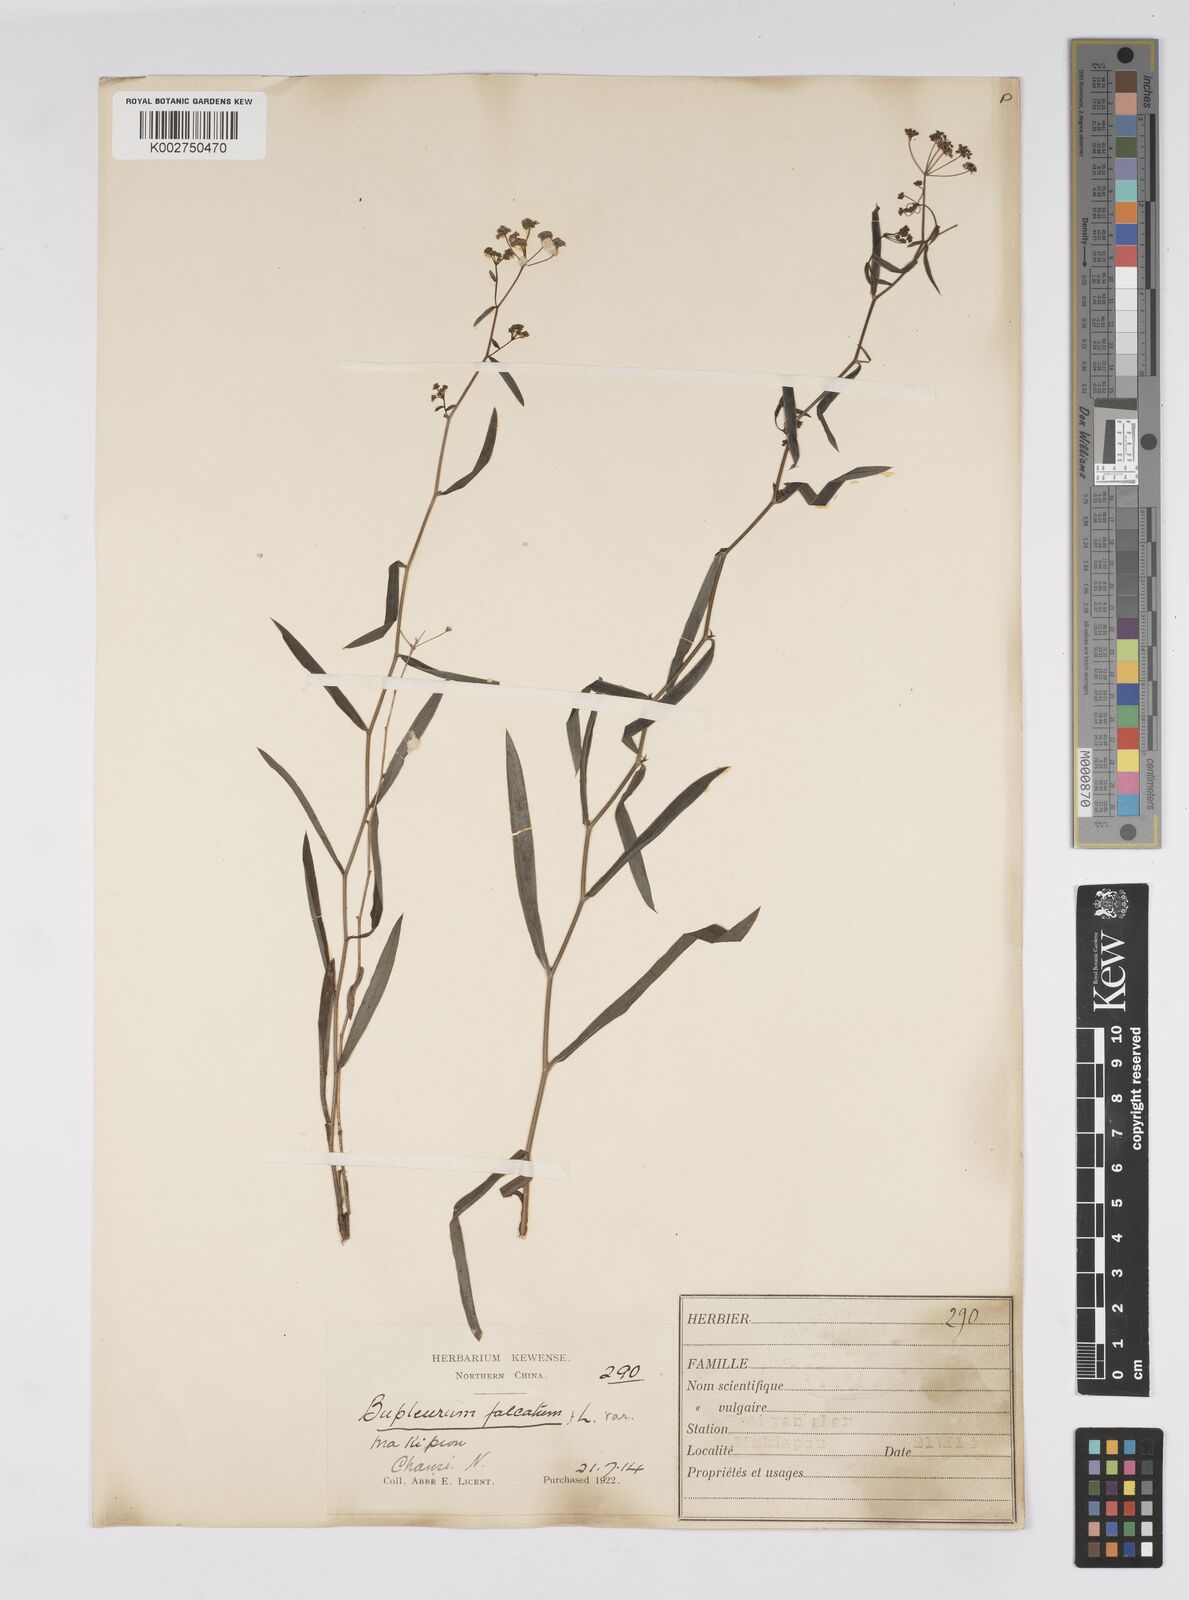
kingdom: Plantae
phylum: Tracheophyta
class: Magnoliopsida
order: Apiales
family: Apiaceae
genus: Bupleurum
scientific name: Bupleurum krylovianum
